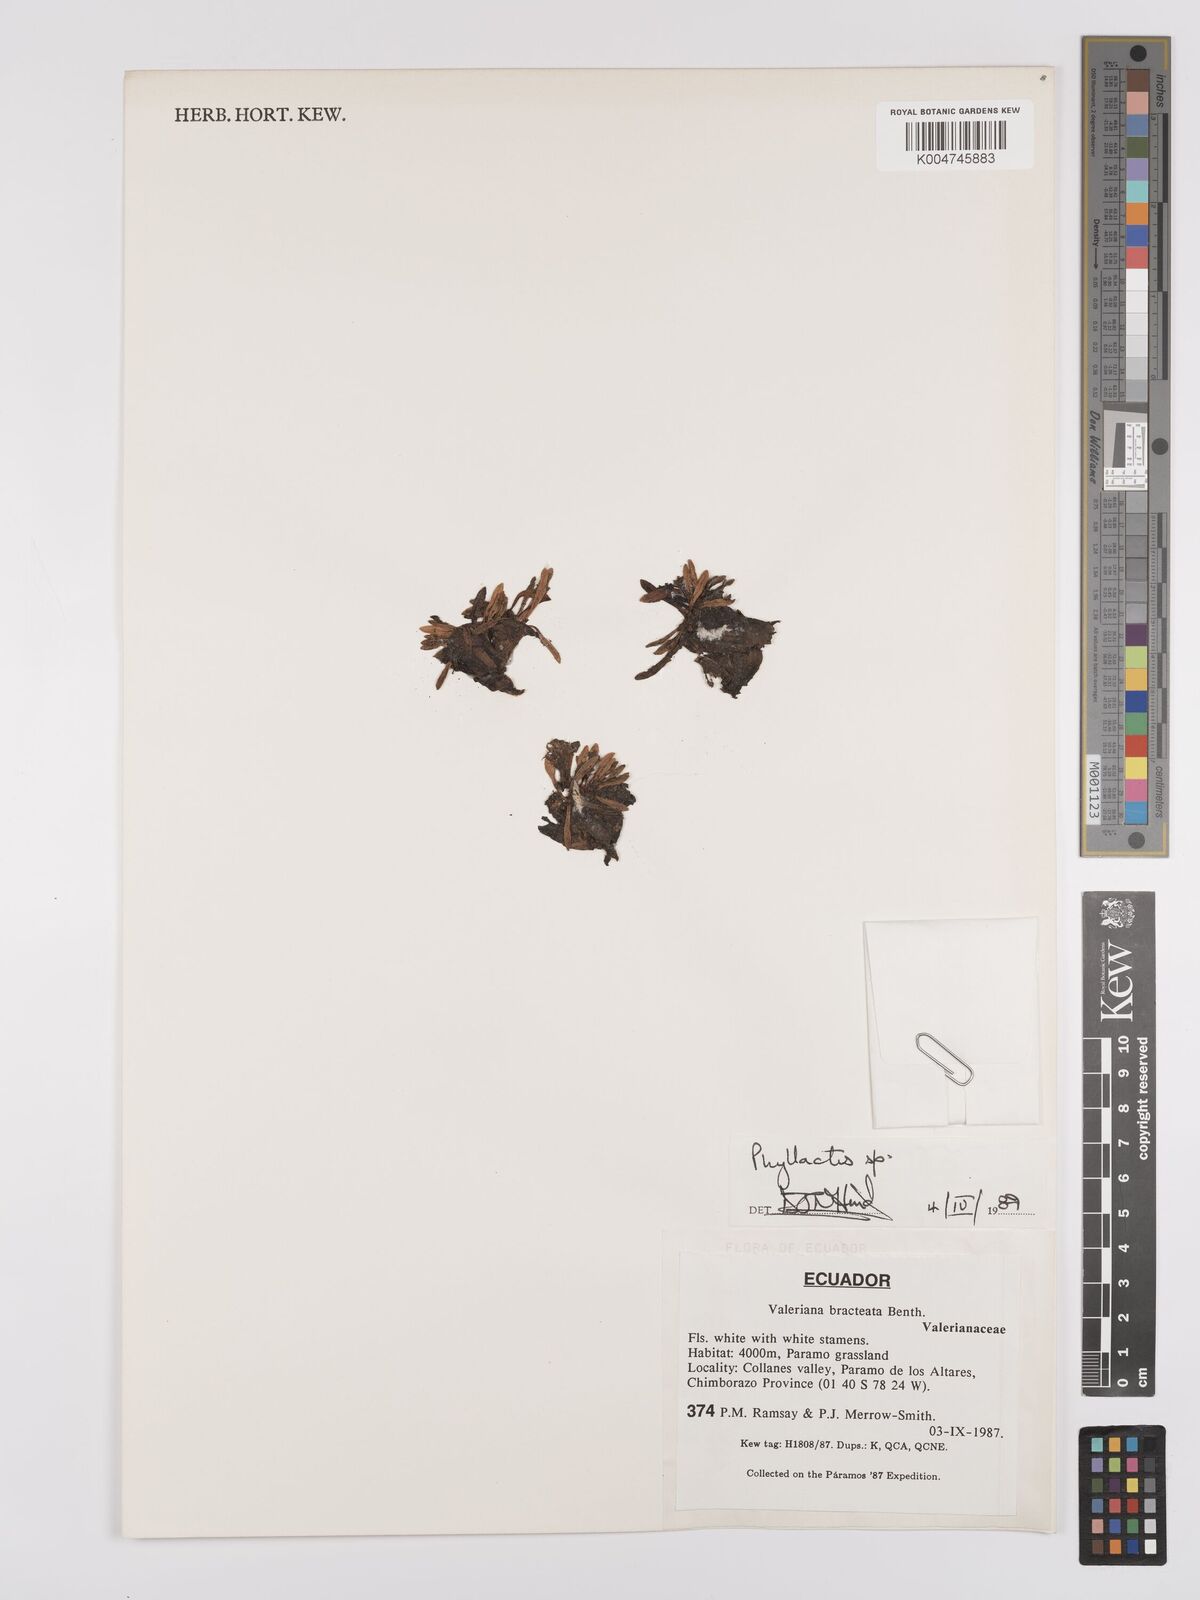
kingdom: Plantae
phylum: Tracheophyta
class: Magnoliopsida
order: Asterales
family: Asteraceae
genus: Phyllactis
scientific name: Phyllactis
